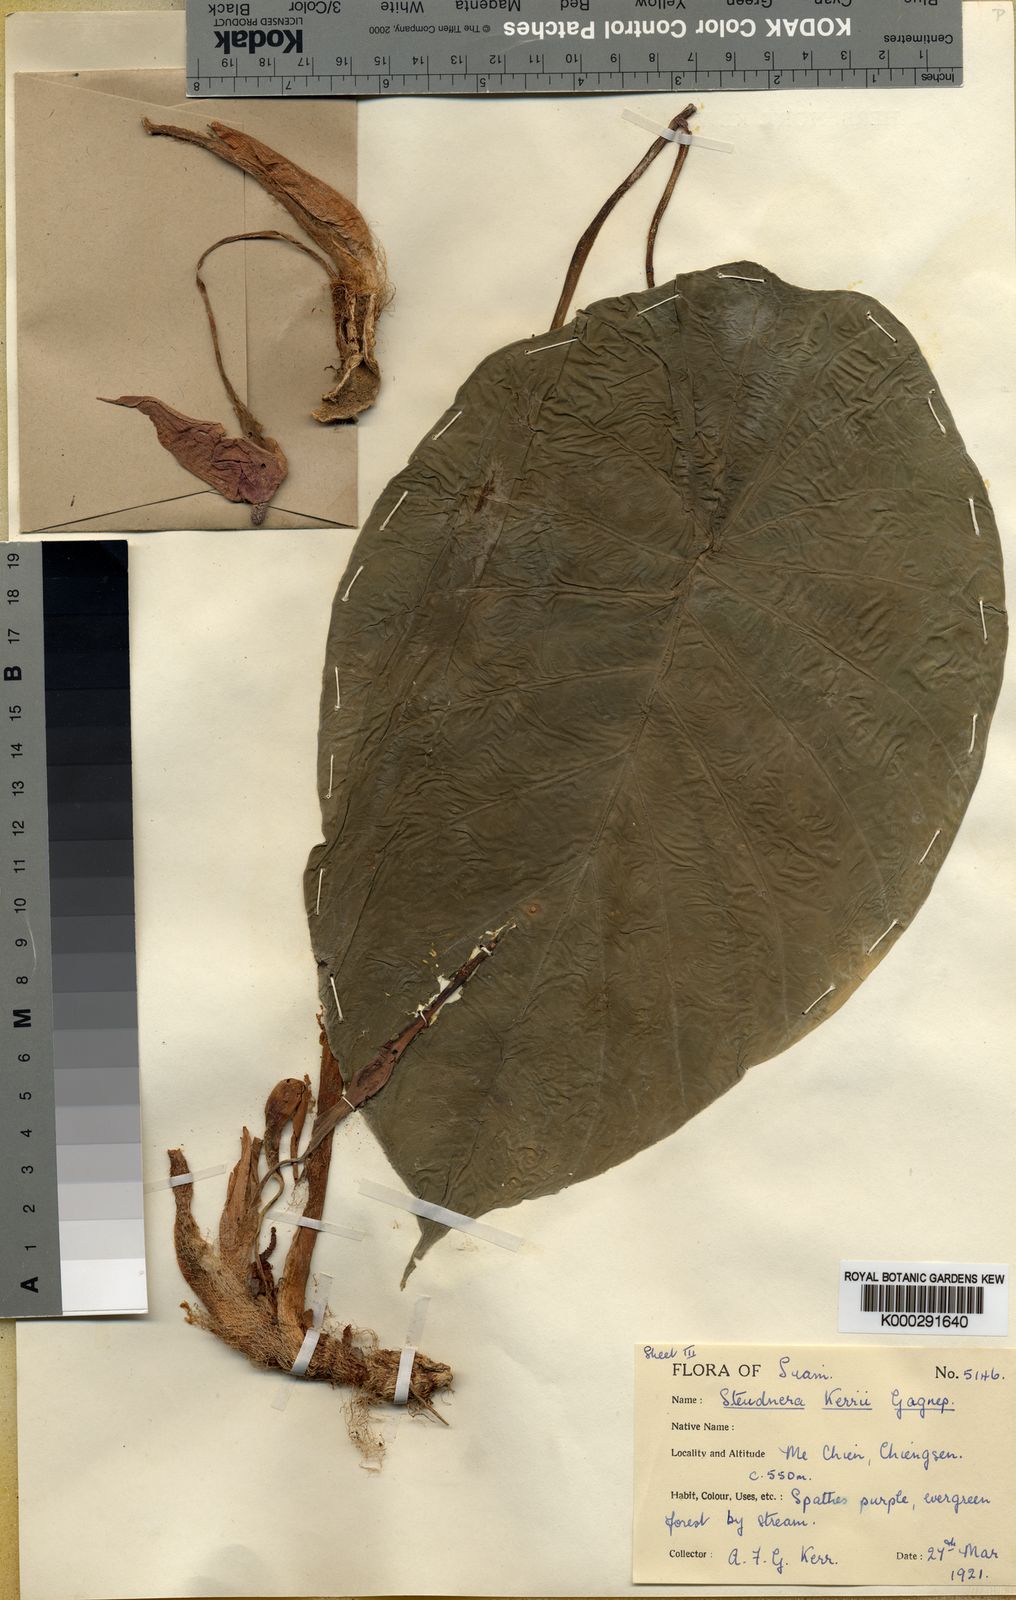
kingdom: Plantae
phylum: Tracheophyta
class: Liliopsida
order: Alismatales
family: Araceae
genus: Steudnera
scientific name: Steudnera kerrii
